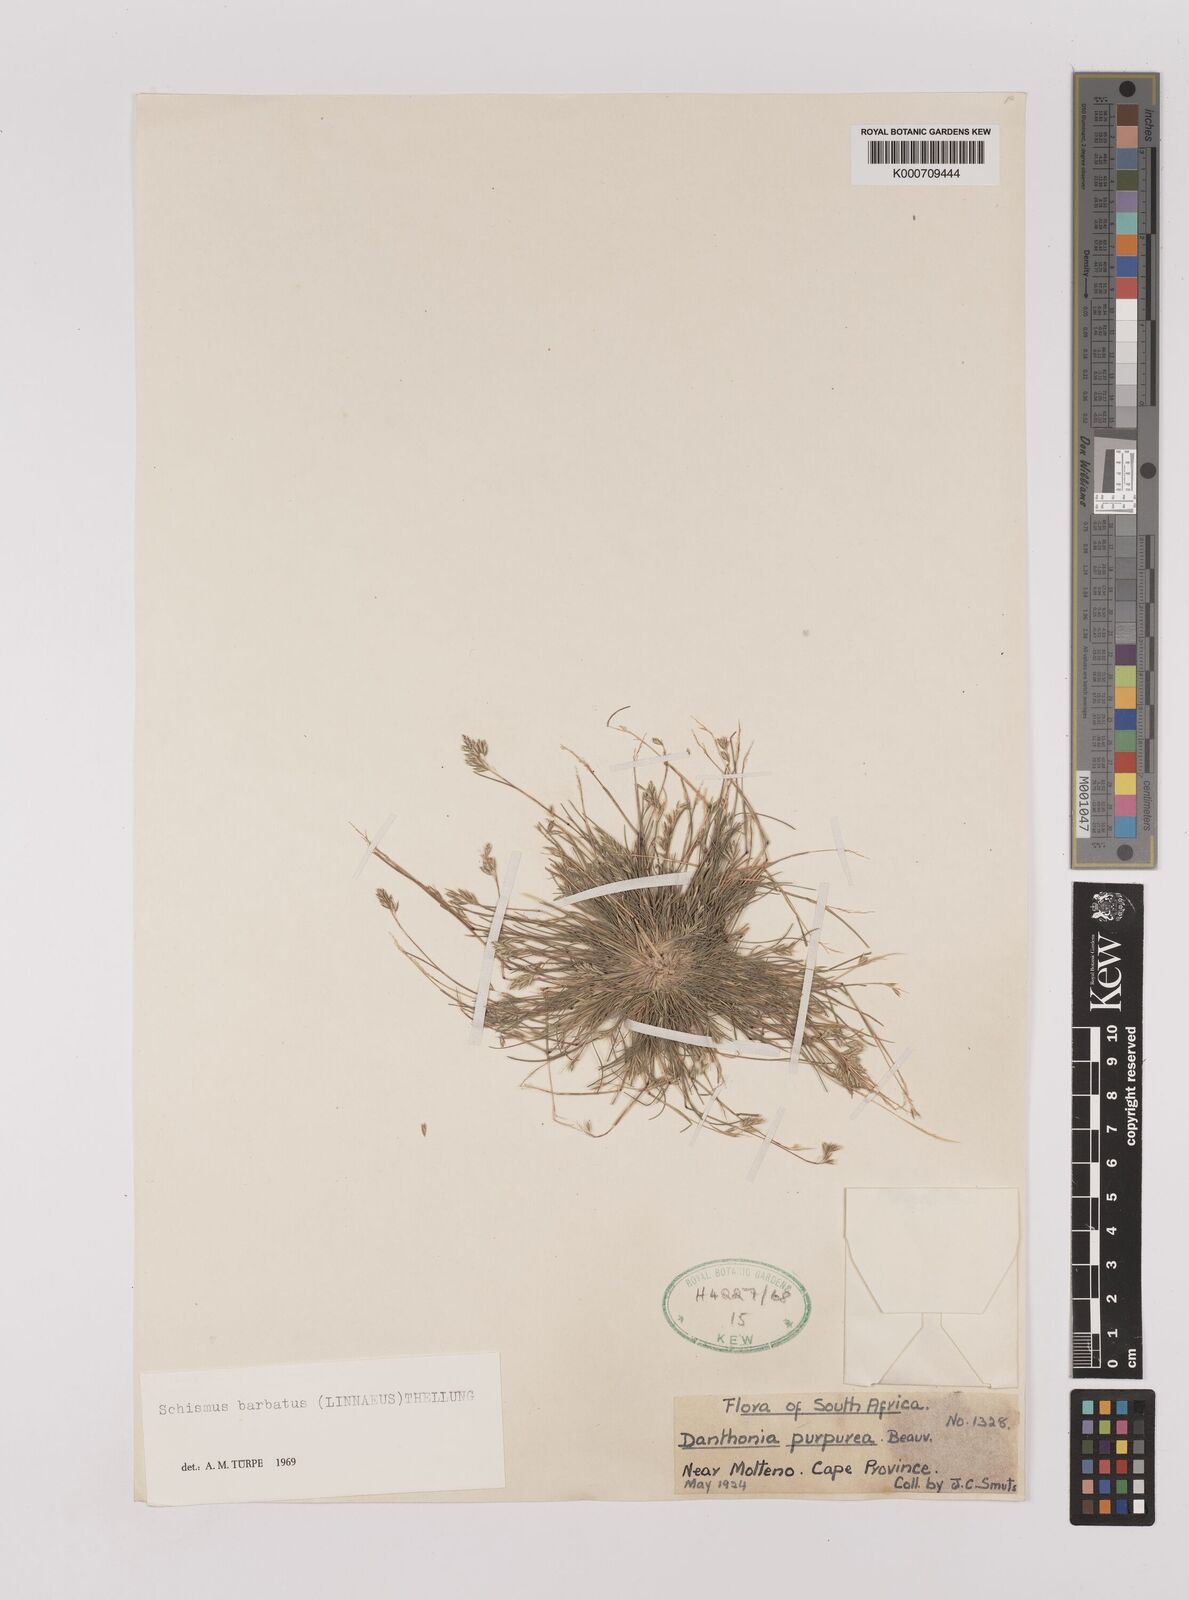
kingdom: Plantae
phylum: Tracheophyta
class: Liliopsida
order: Poales
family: Poaceae
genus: Schismus
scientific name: Schismus barbatus
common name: Kelch-grass
